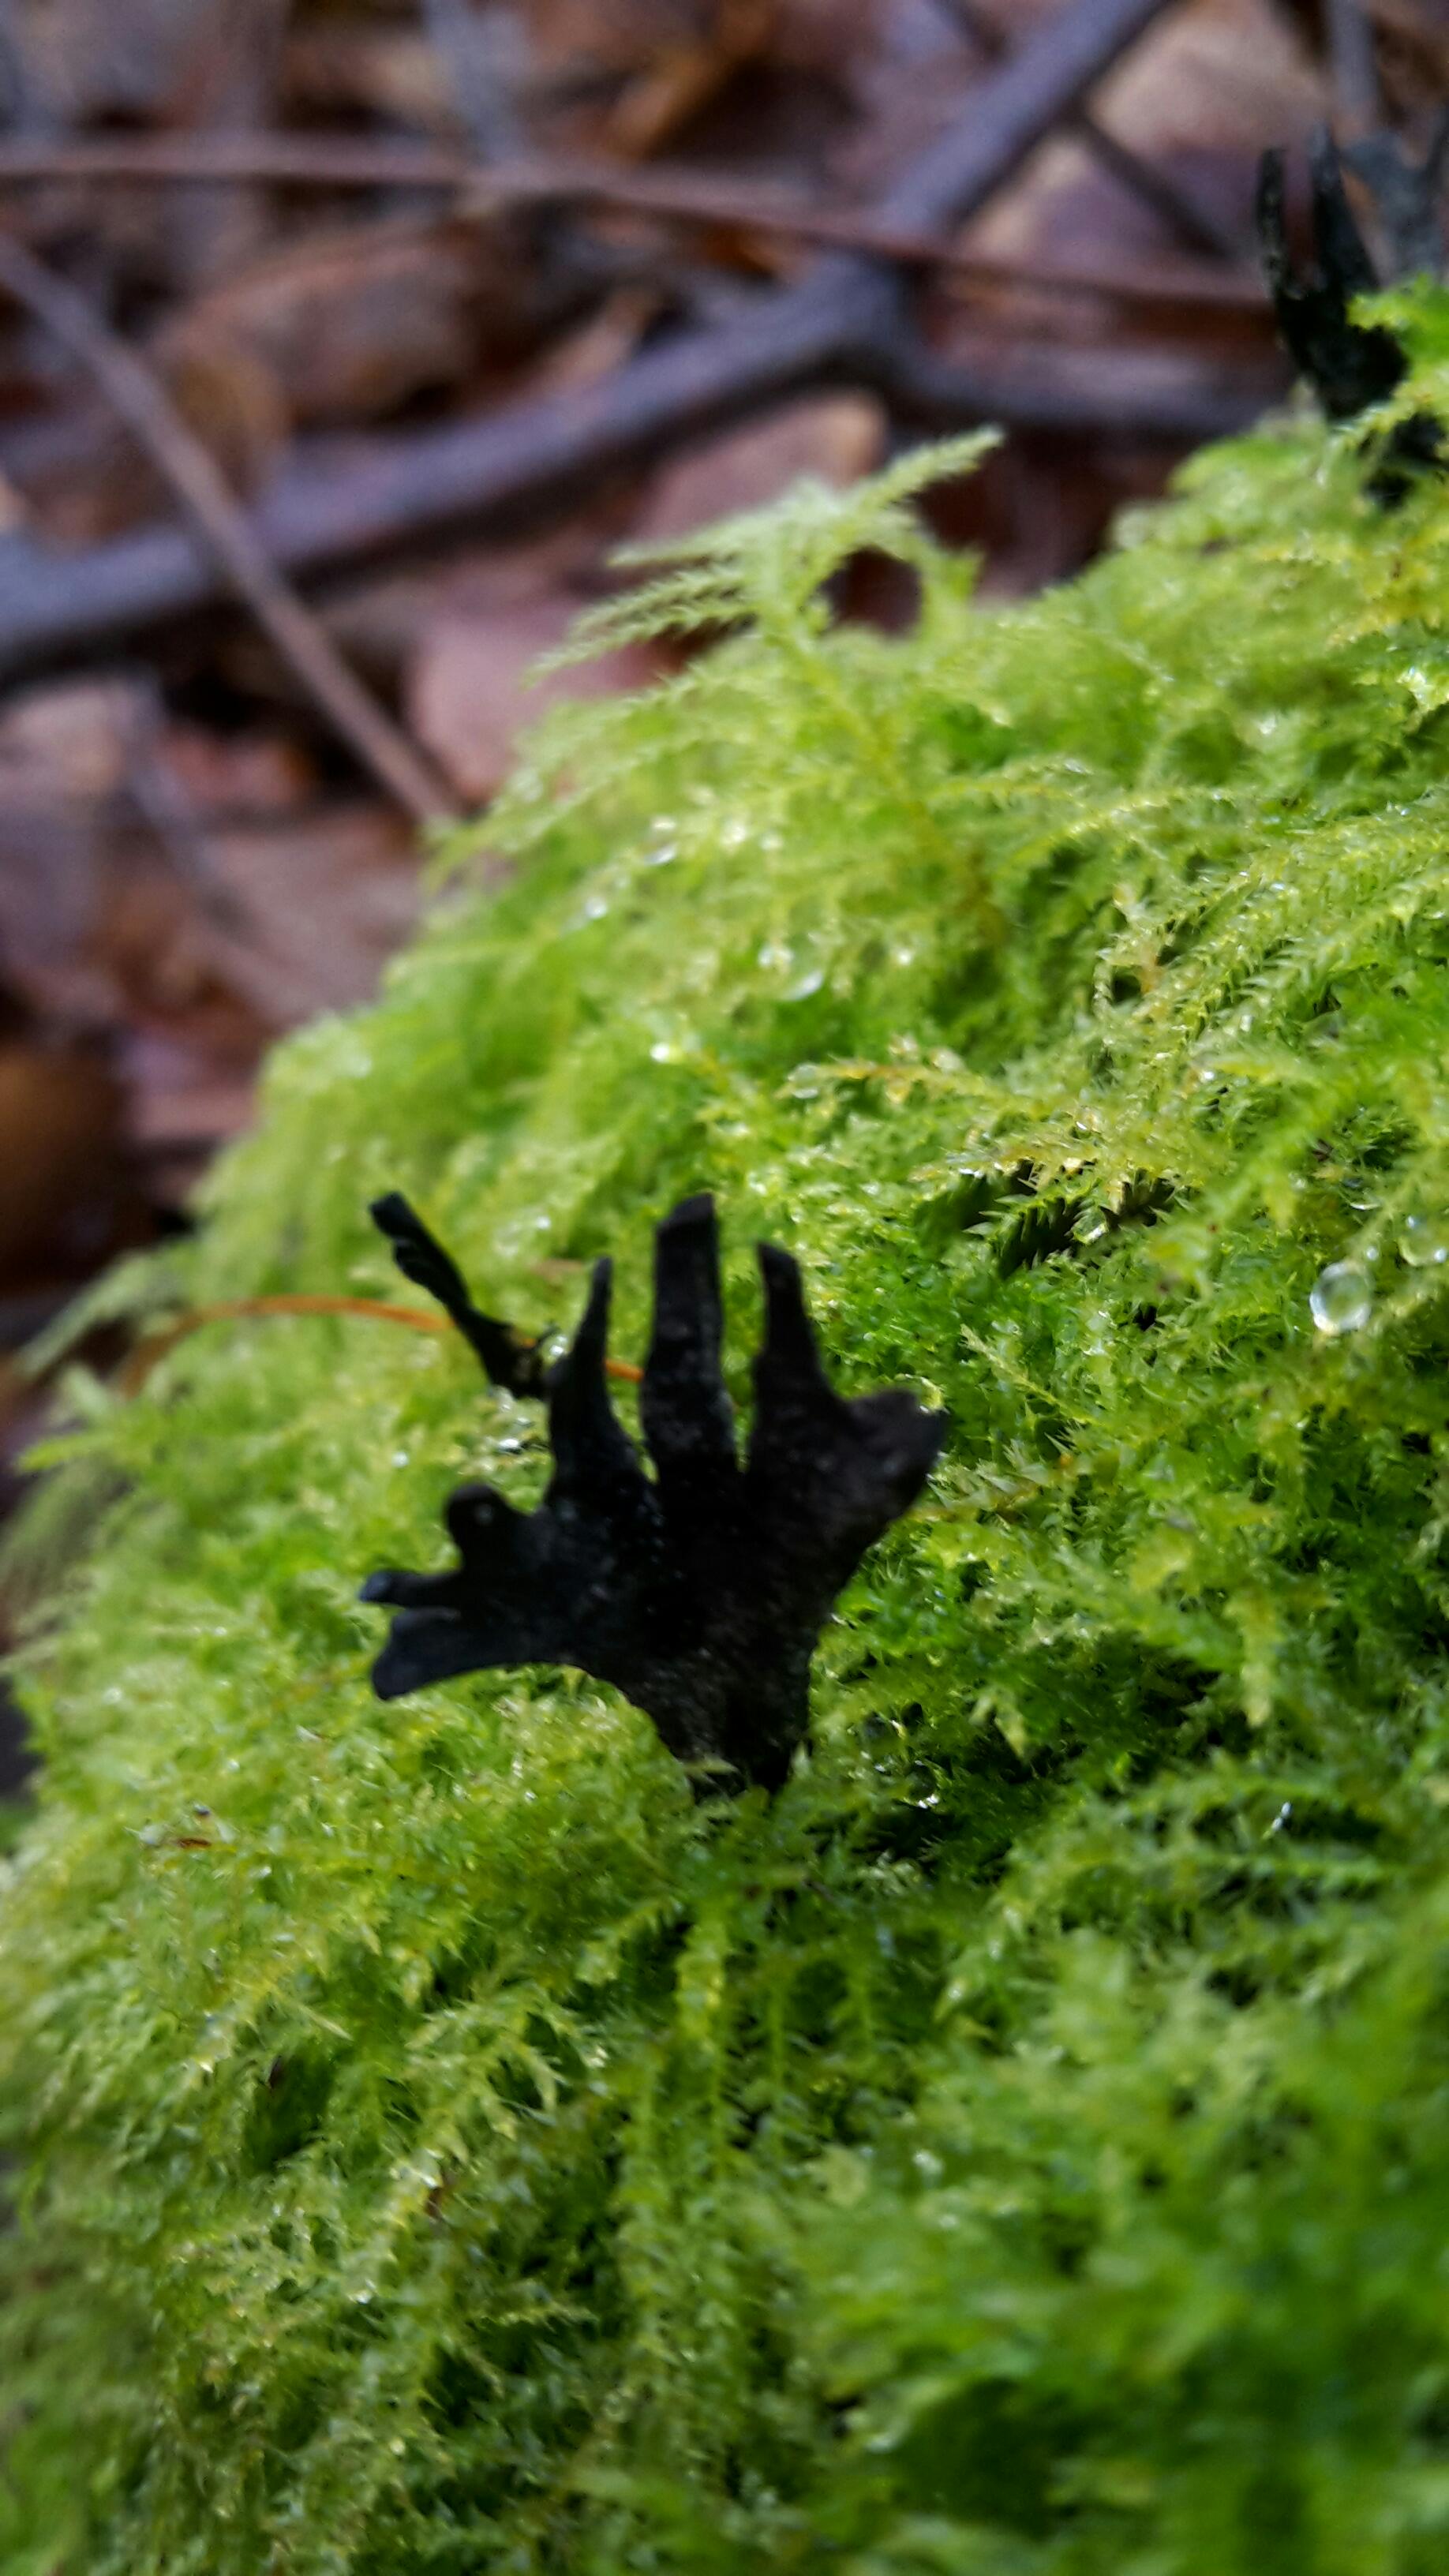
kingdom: Fungi
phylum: Ascomycota
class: Sordariomycetes
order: Xylariales
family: Xylariaceae
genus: Xylaria
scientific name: Xylaria hypoxylon
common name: grenet stødsvamp
